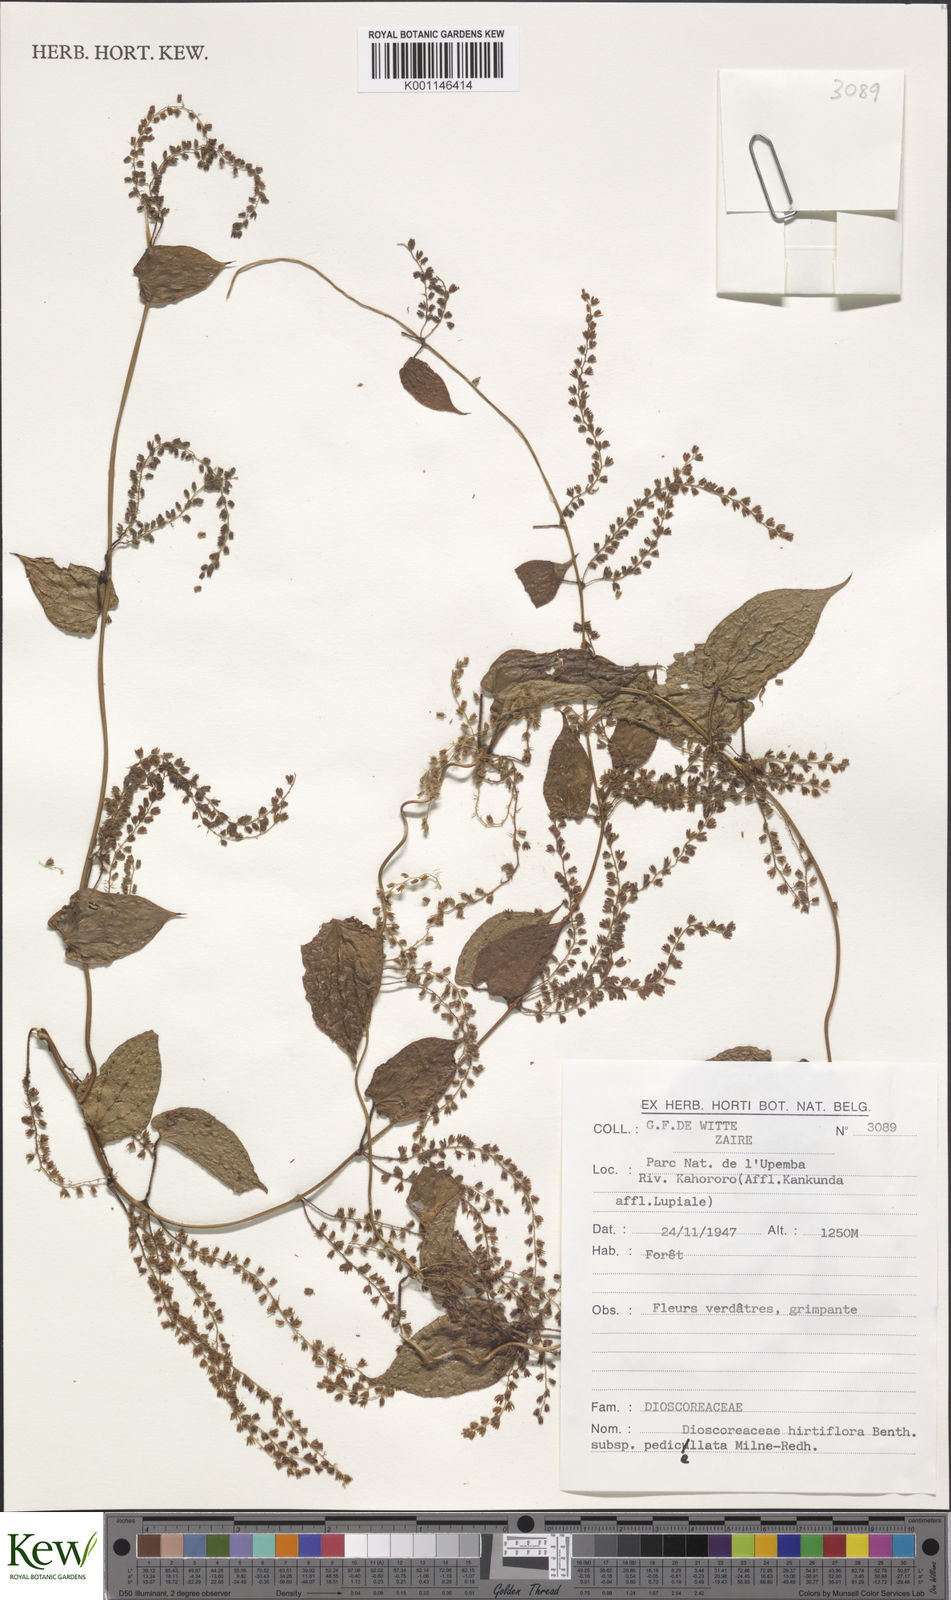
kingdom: Plantae
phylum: Tracheophyta
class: Liliopsida
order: Dioscoreales
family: Dioscoreaceae
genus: Dioscorea
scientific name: Dioscorea hirtiflora
